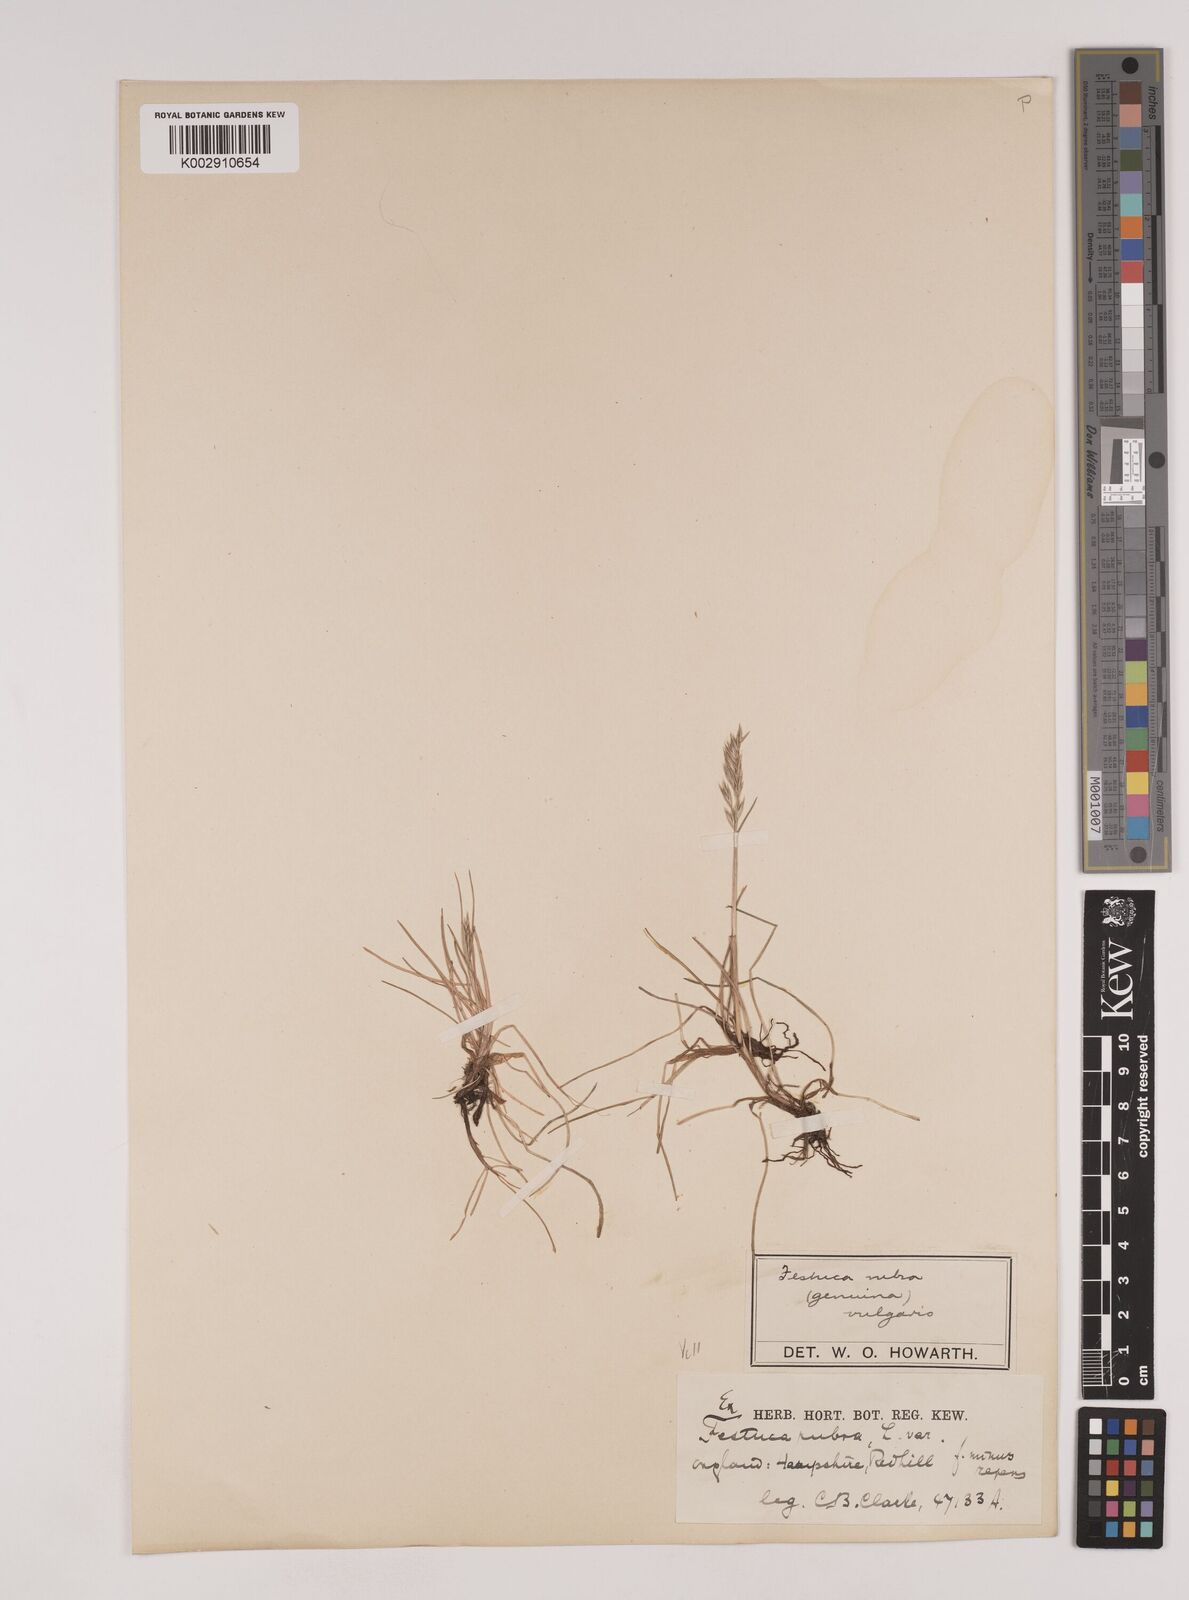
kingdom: Plantae
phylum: Tracheophyta
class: Liliopsida
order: Poales
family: Poaceae
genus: Festuca
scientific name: Festuca rubra
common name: Red fescue
